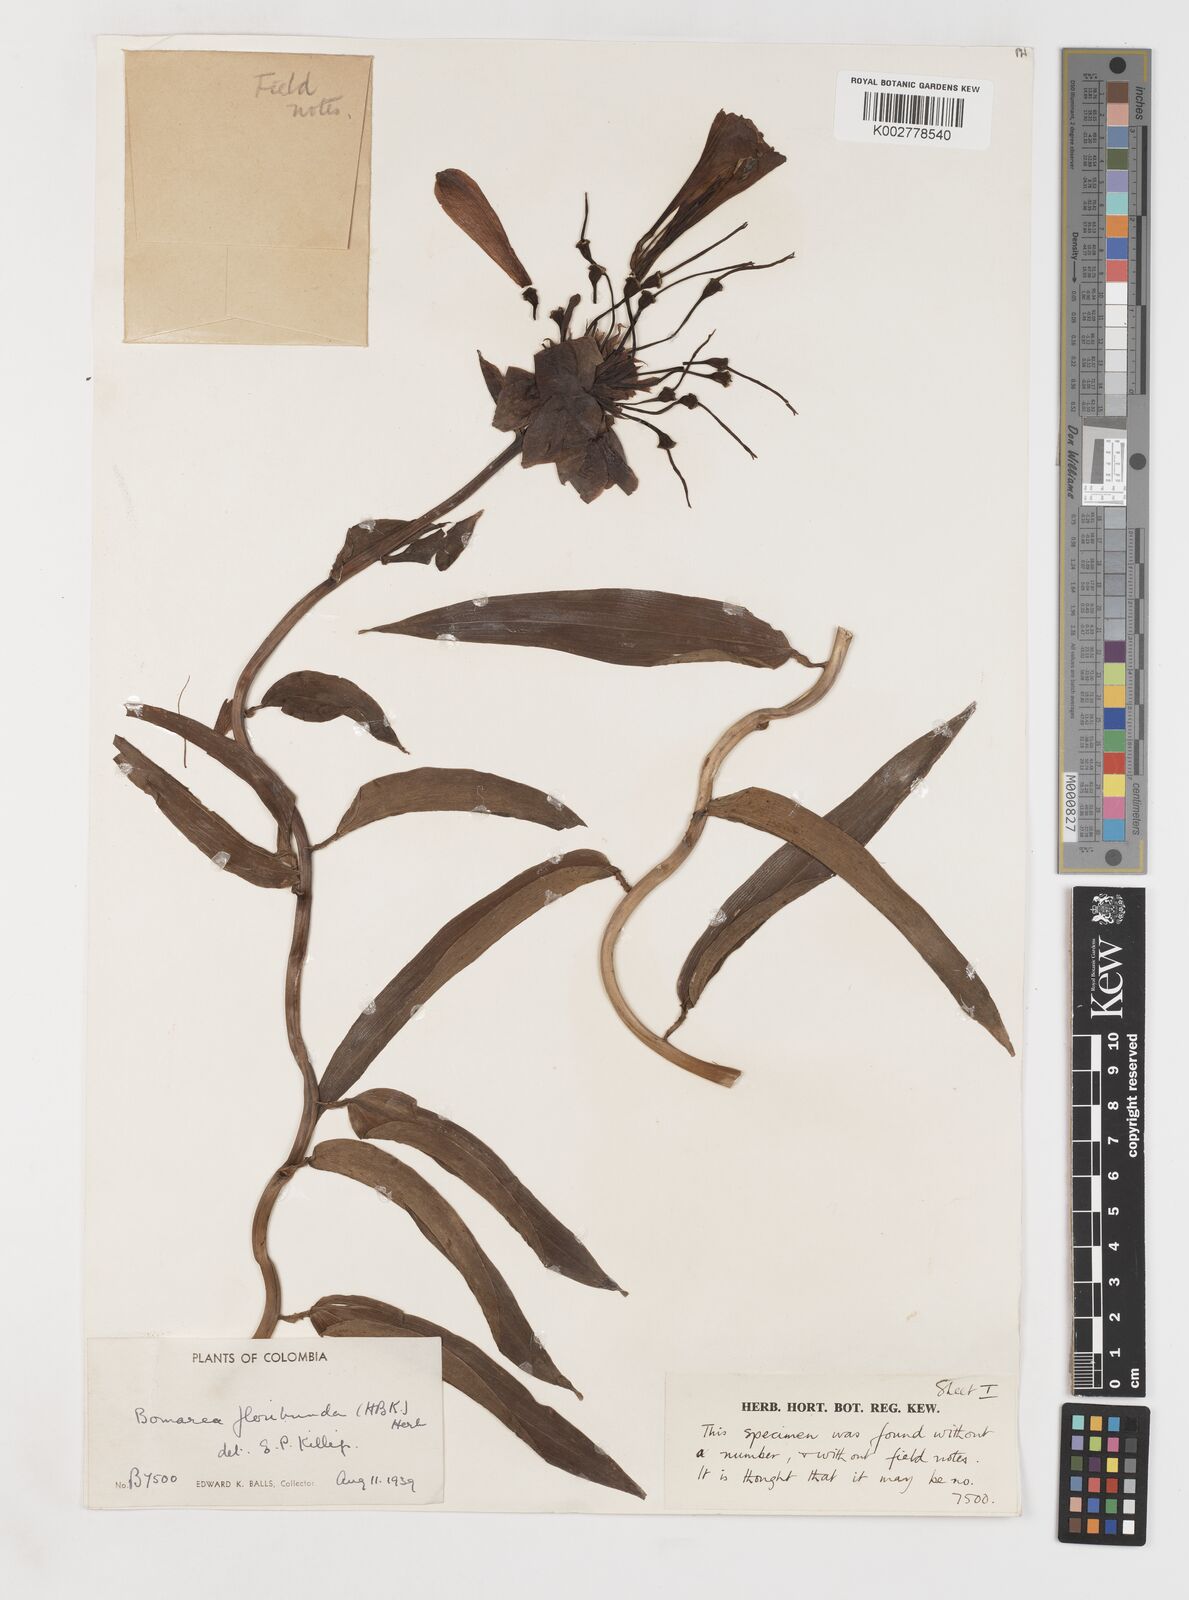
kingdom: Plantae
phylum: Tracheophyta
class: Liliopsida
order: Liliales
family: Alstroemeriaceae
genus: Bomarea
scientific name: Bomarea multiflora
